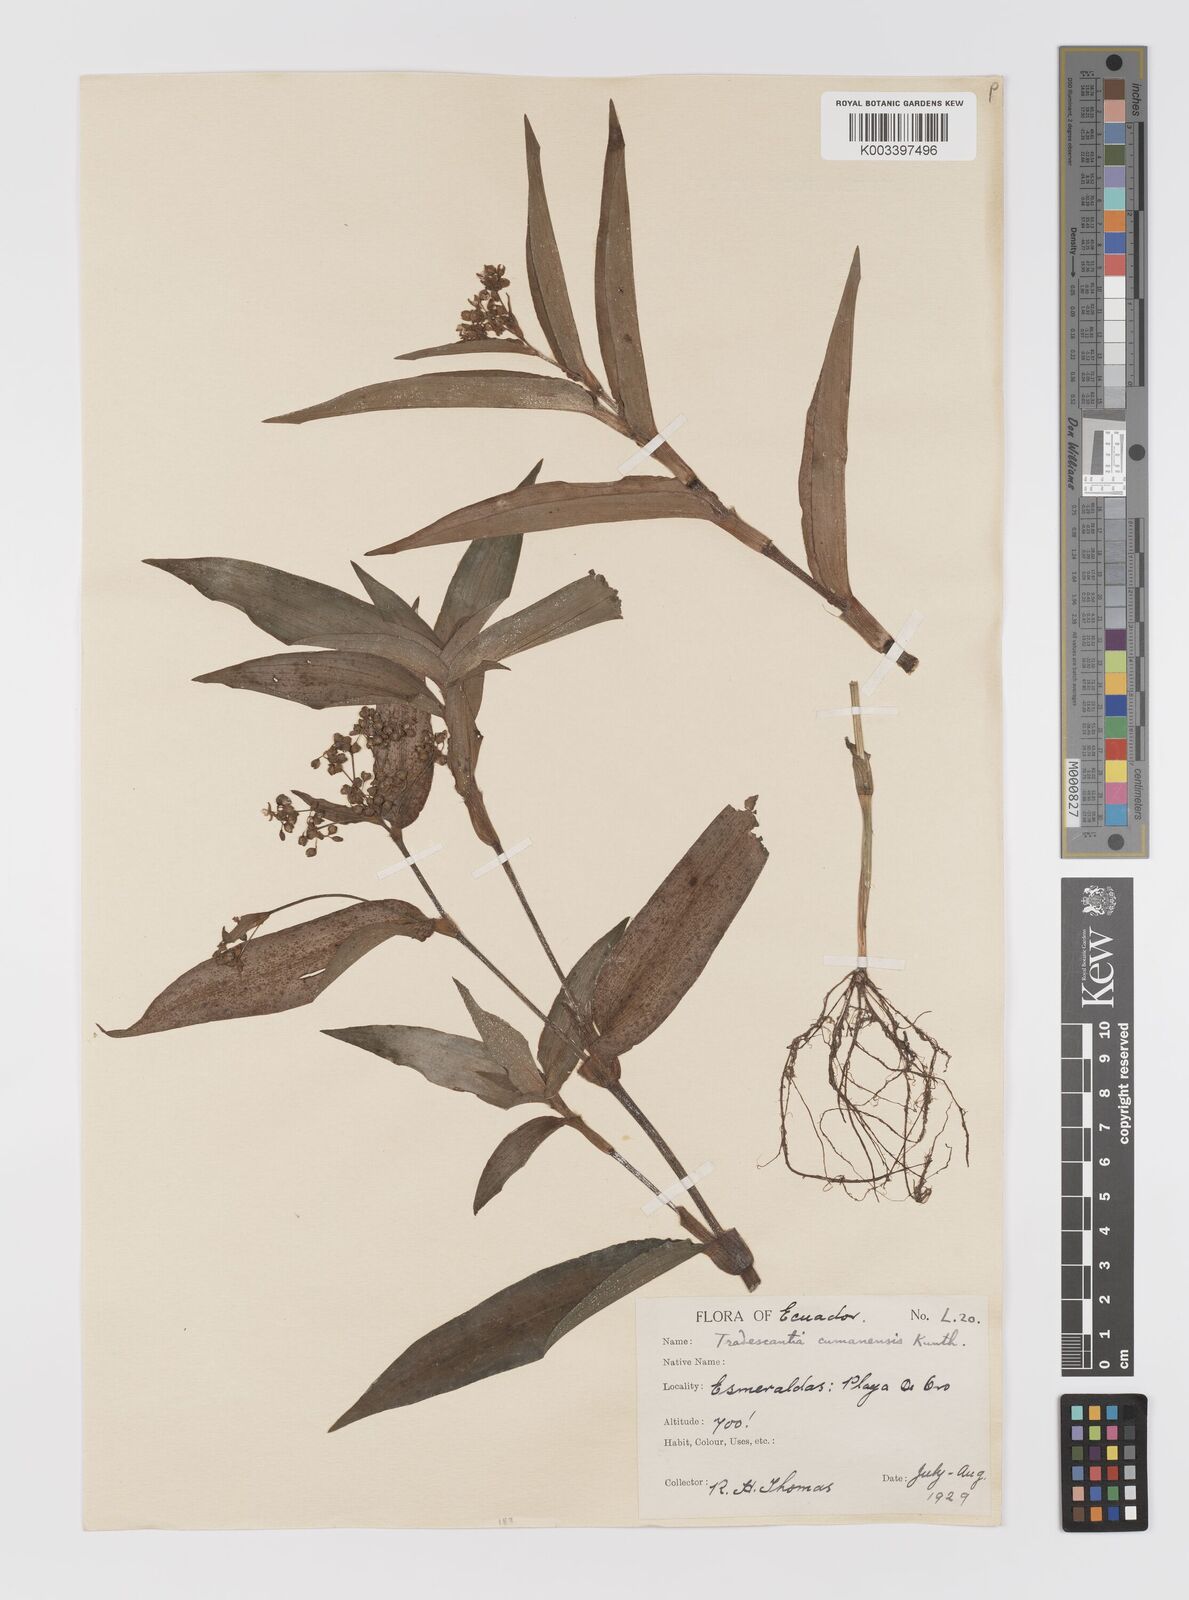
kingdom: Plantae
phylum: Tracheophyta
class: Liliopsida
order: Commelinales
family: Commelinaceae
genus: Callisia
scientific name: Callisia serrulata
